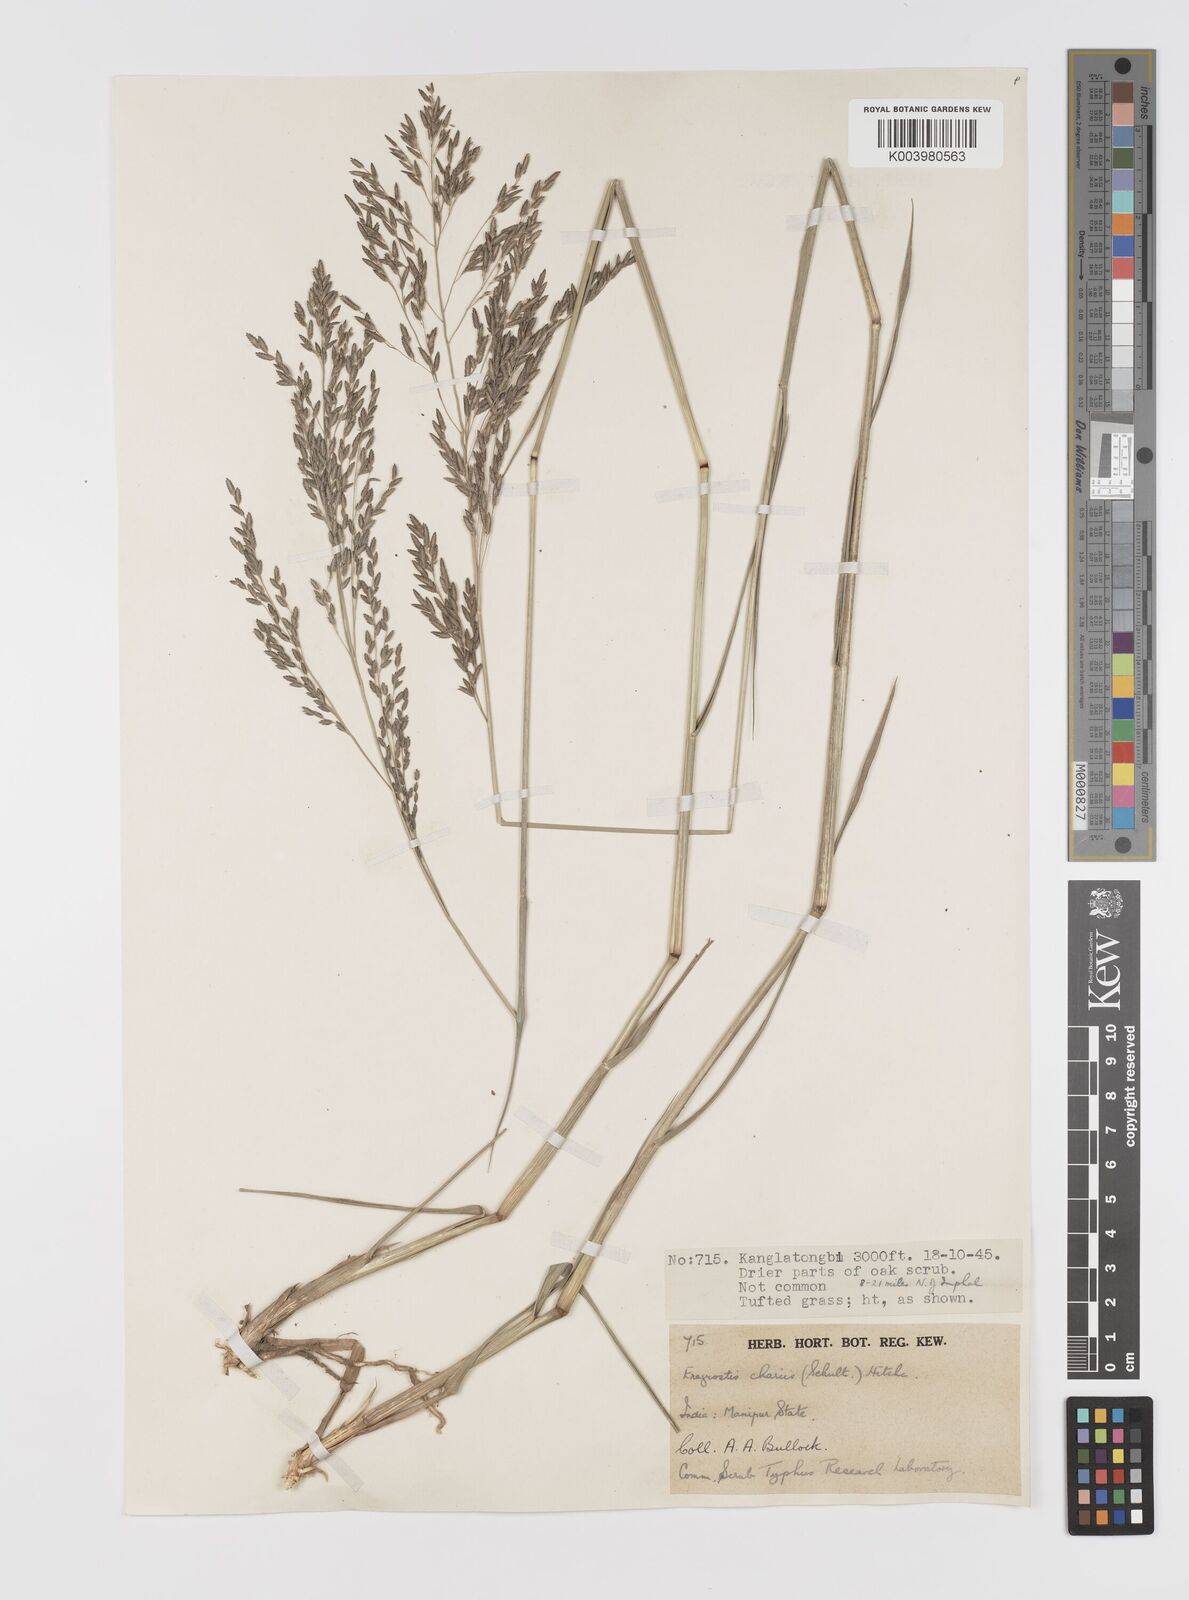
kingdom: Plantae
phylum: Tracheophyta
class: Liliopsida
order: Poales
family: Poaceae
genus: Eragrostis
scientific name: Eragrostis atrovirens
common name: Thalia lovegrass
